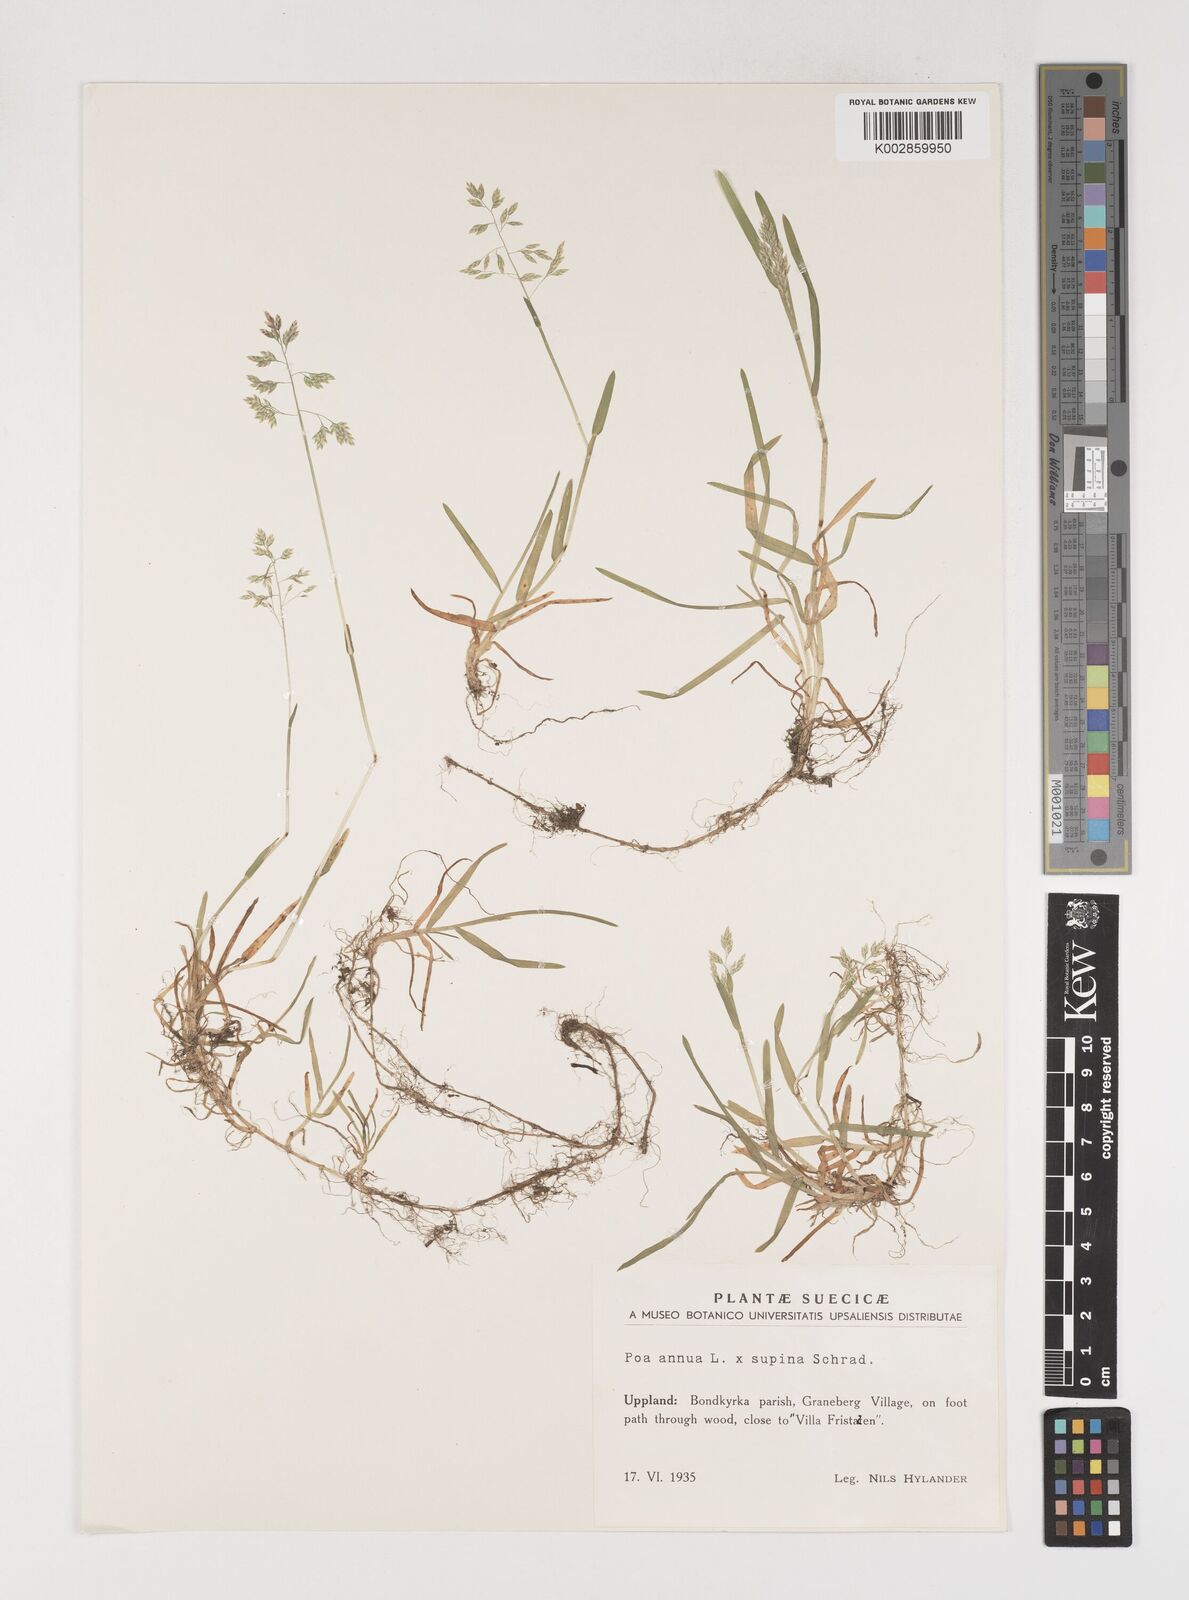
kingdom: Plantae
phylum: Tracheophyta
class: Liliopsida
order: Poales
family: Poaceae
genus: Poa
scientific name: Poa
